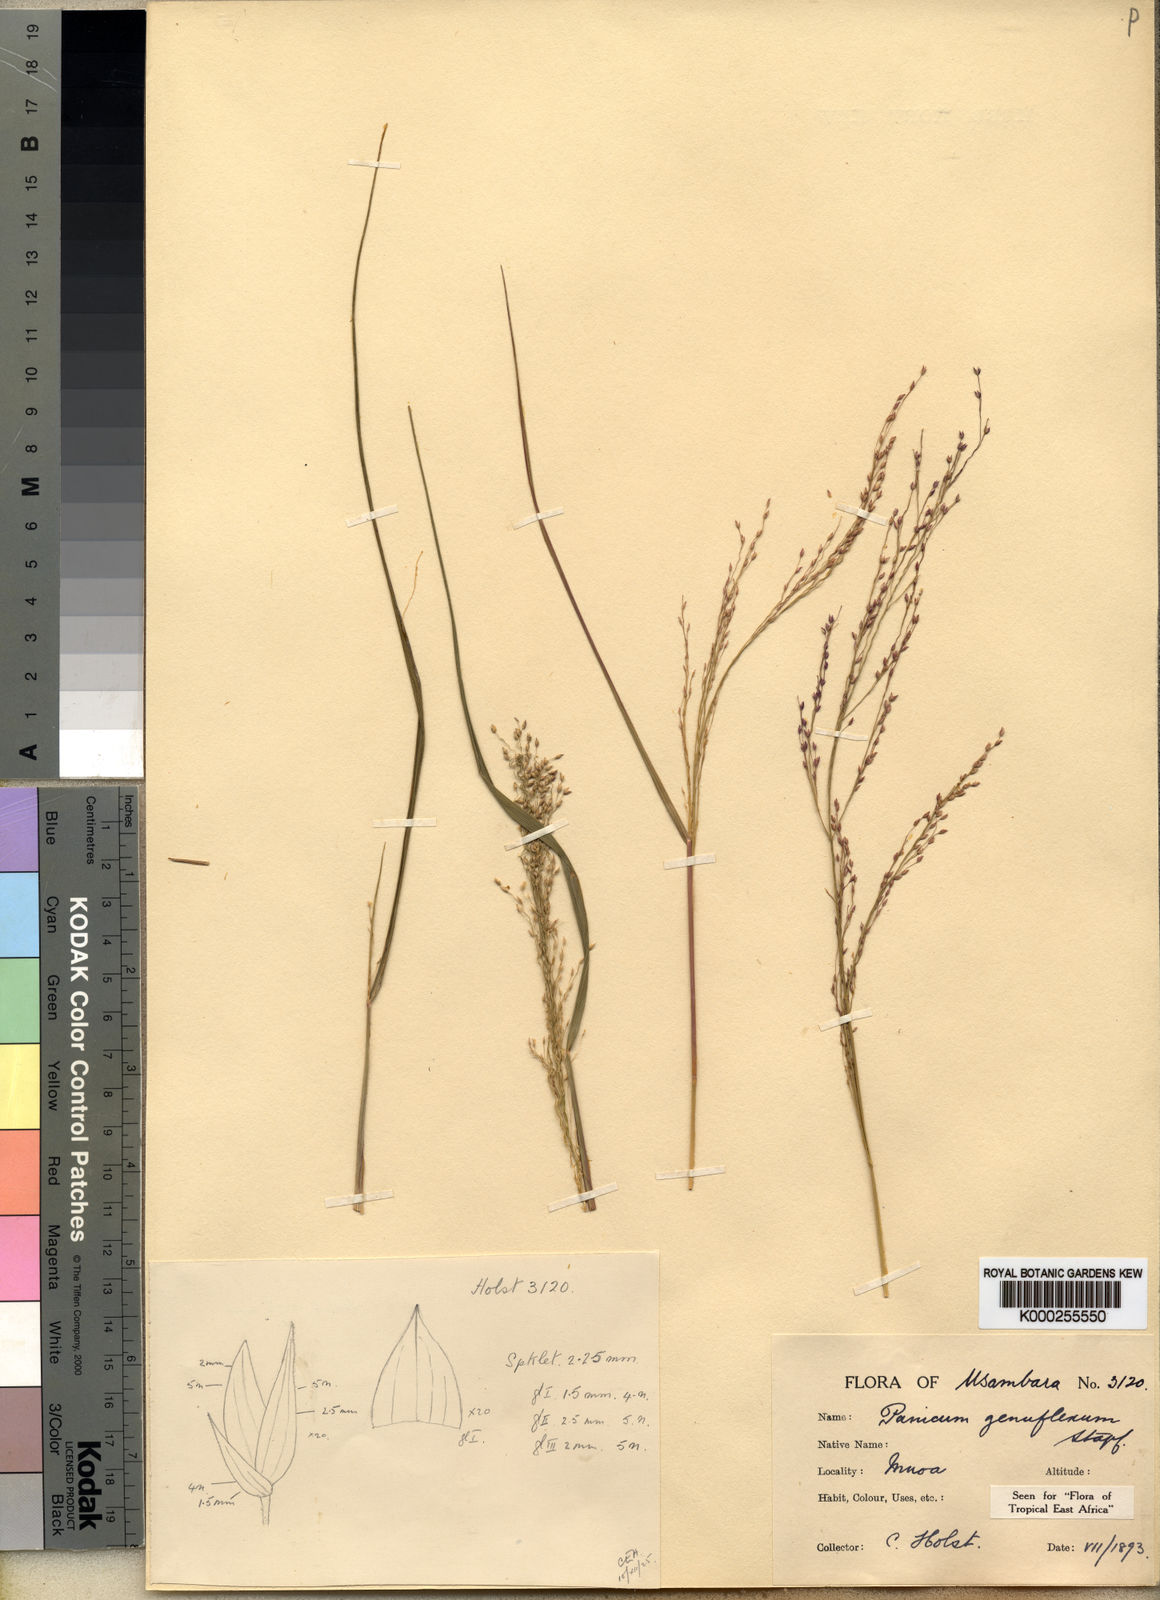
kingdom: Plantae
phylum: Tracheophyta
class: Liliopsida
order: Poales
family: Poaceae
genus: Panicum
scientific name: Panicum genuflexum
